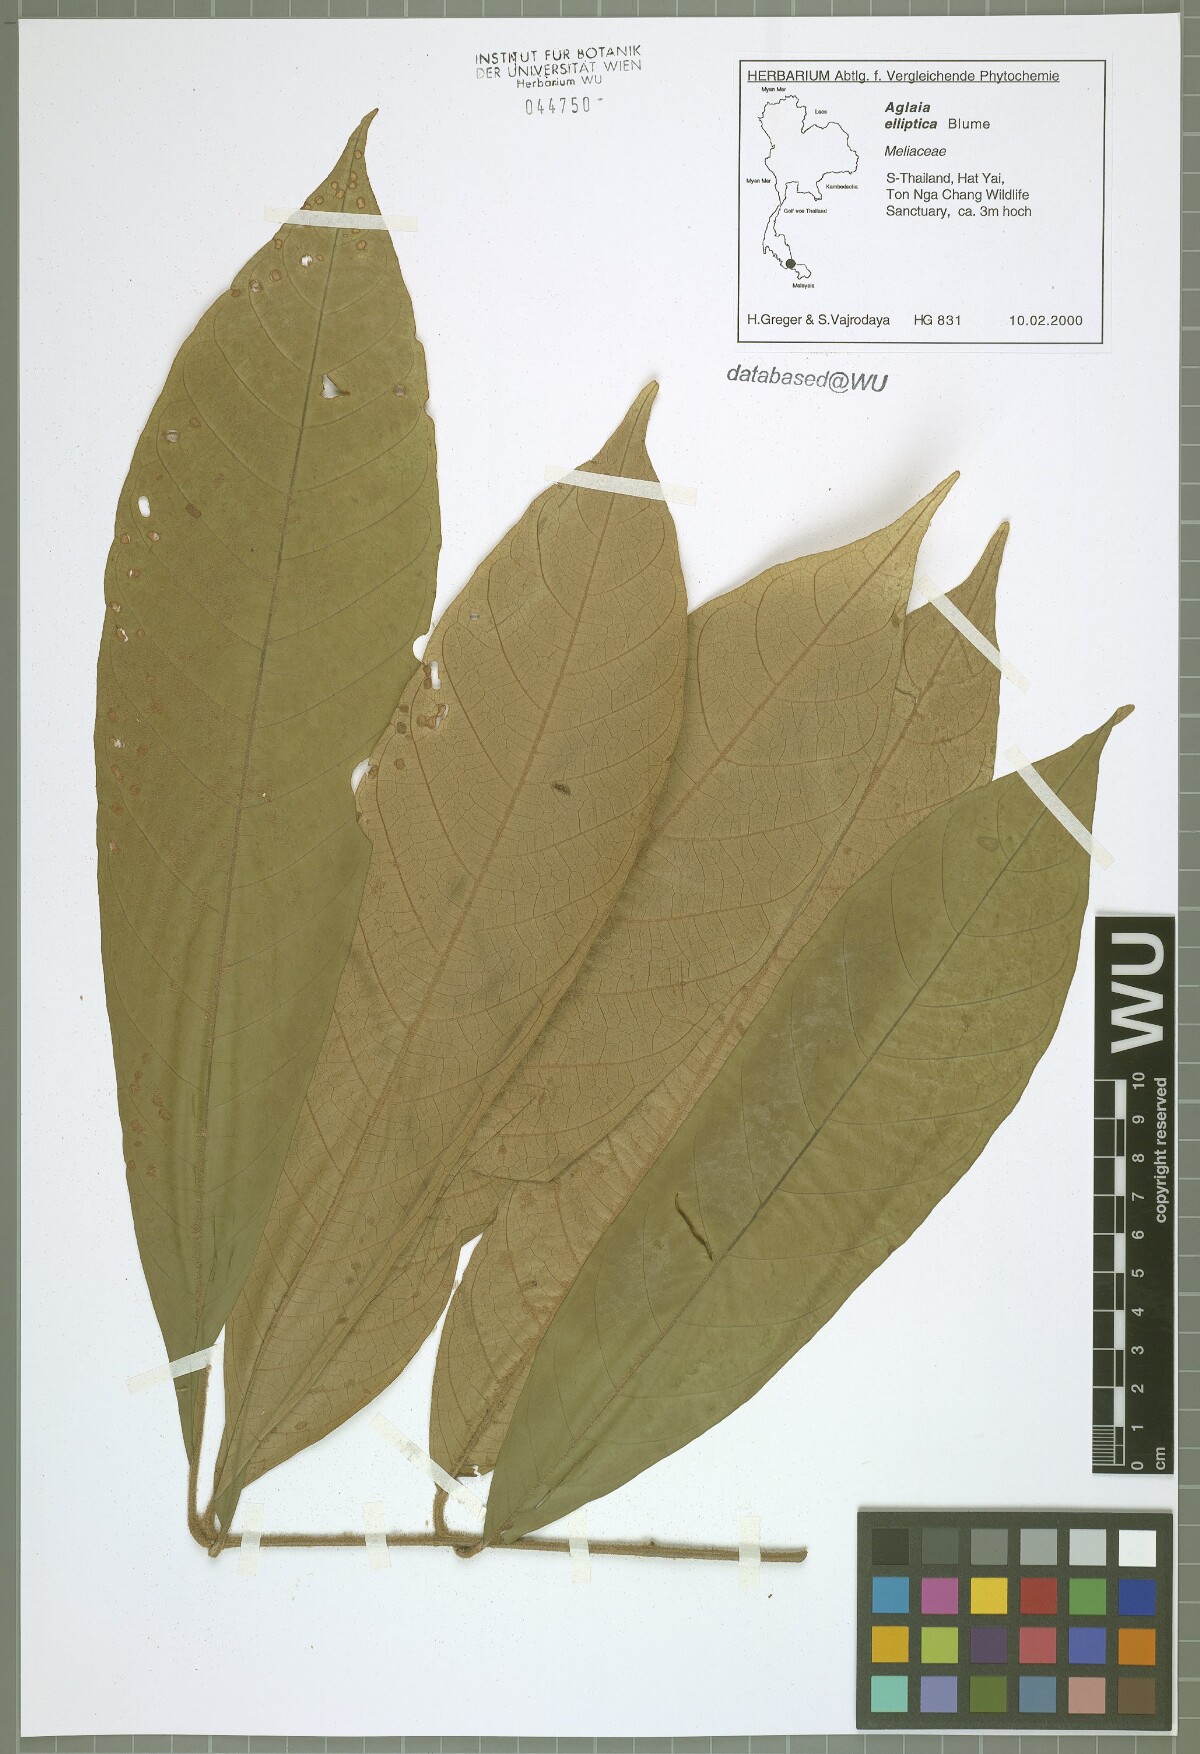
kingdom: Plantae
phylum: Tracheophyta
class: Magnoliopsida
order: Sapindales
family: Meliaceae
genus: Aglaia
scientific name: Aglaia elliptica
